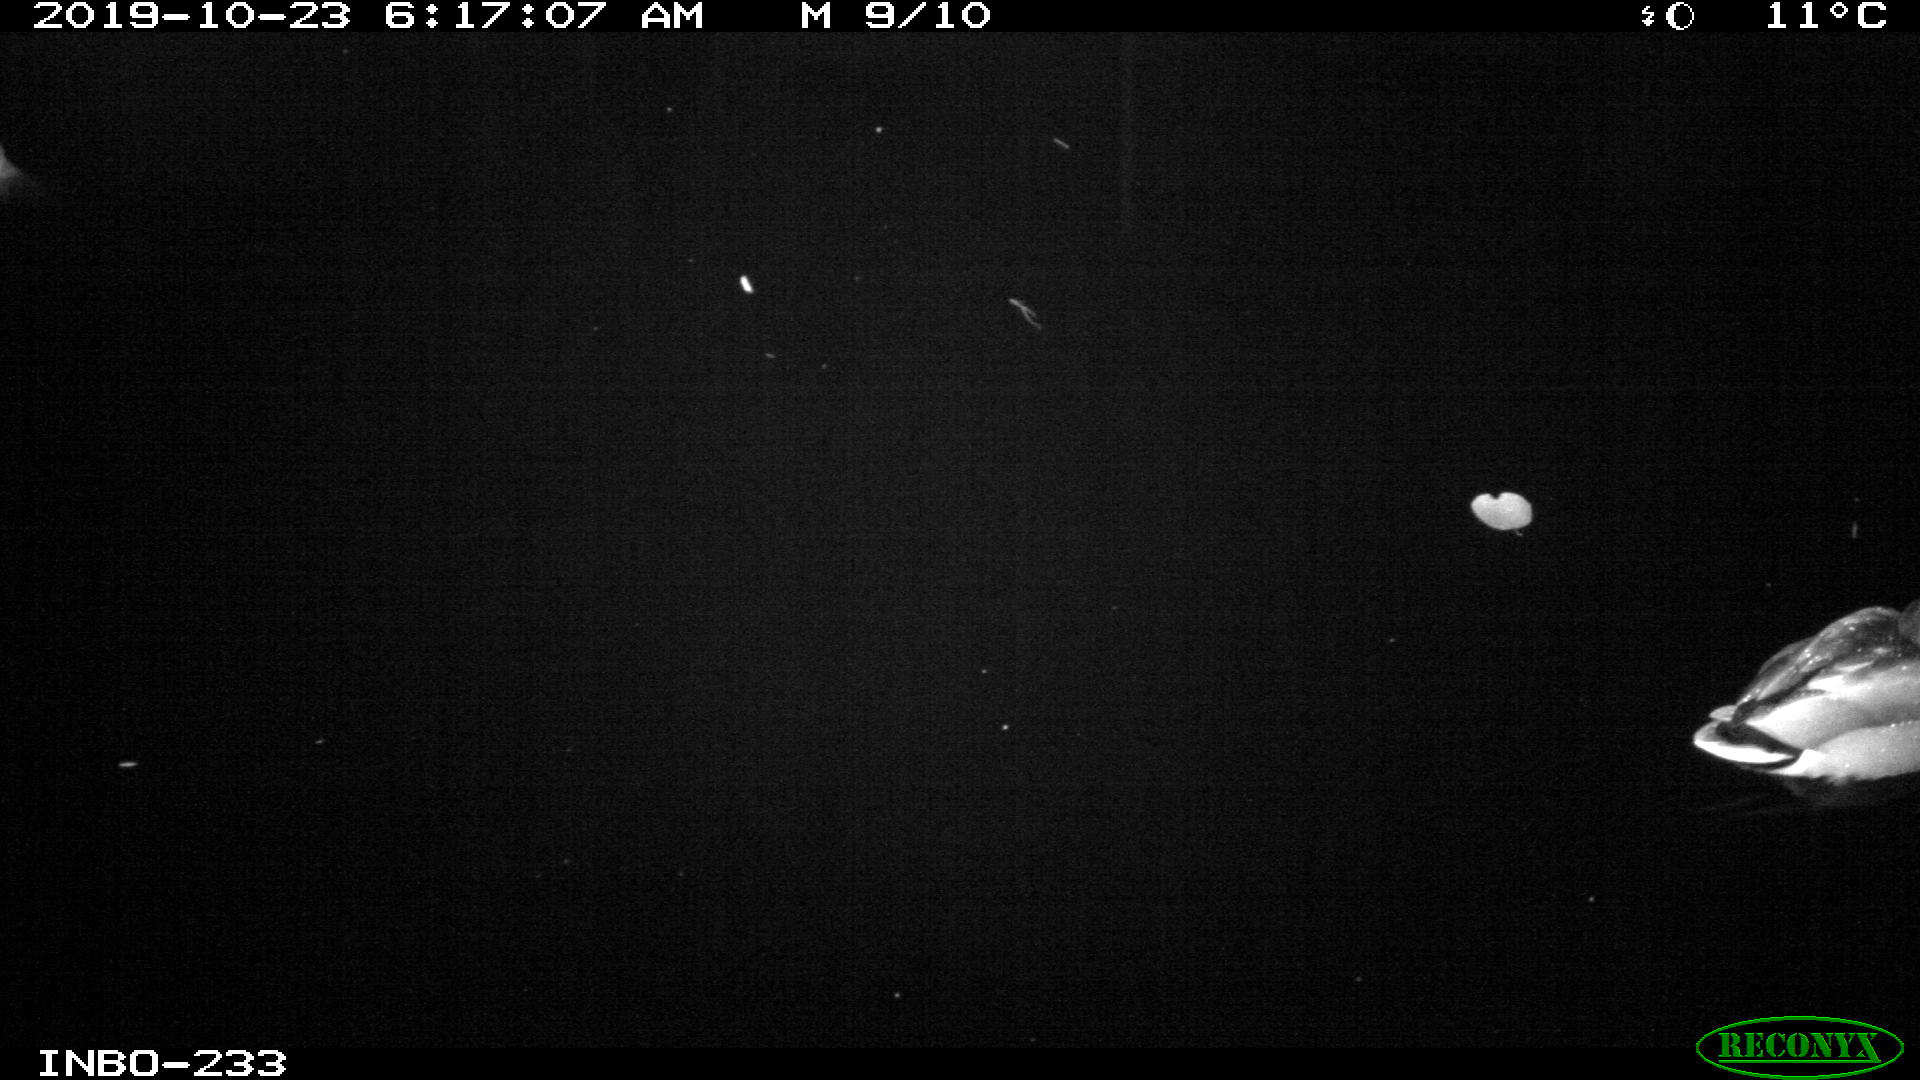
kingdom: Animalia
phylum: Chordata
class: Aves
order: Anseriformes
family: Anatidae
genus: Anas
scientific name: Anas platyrhynchos
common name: Mallard
